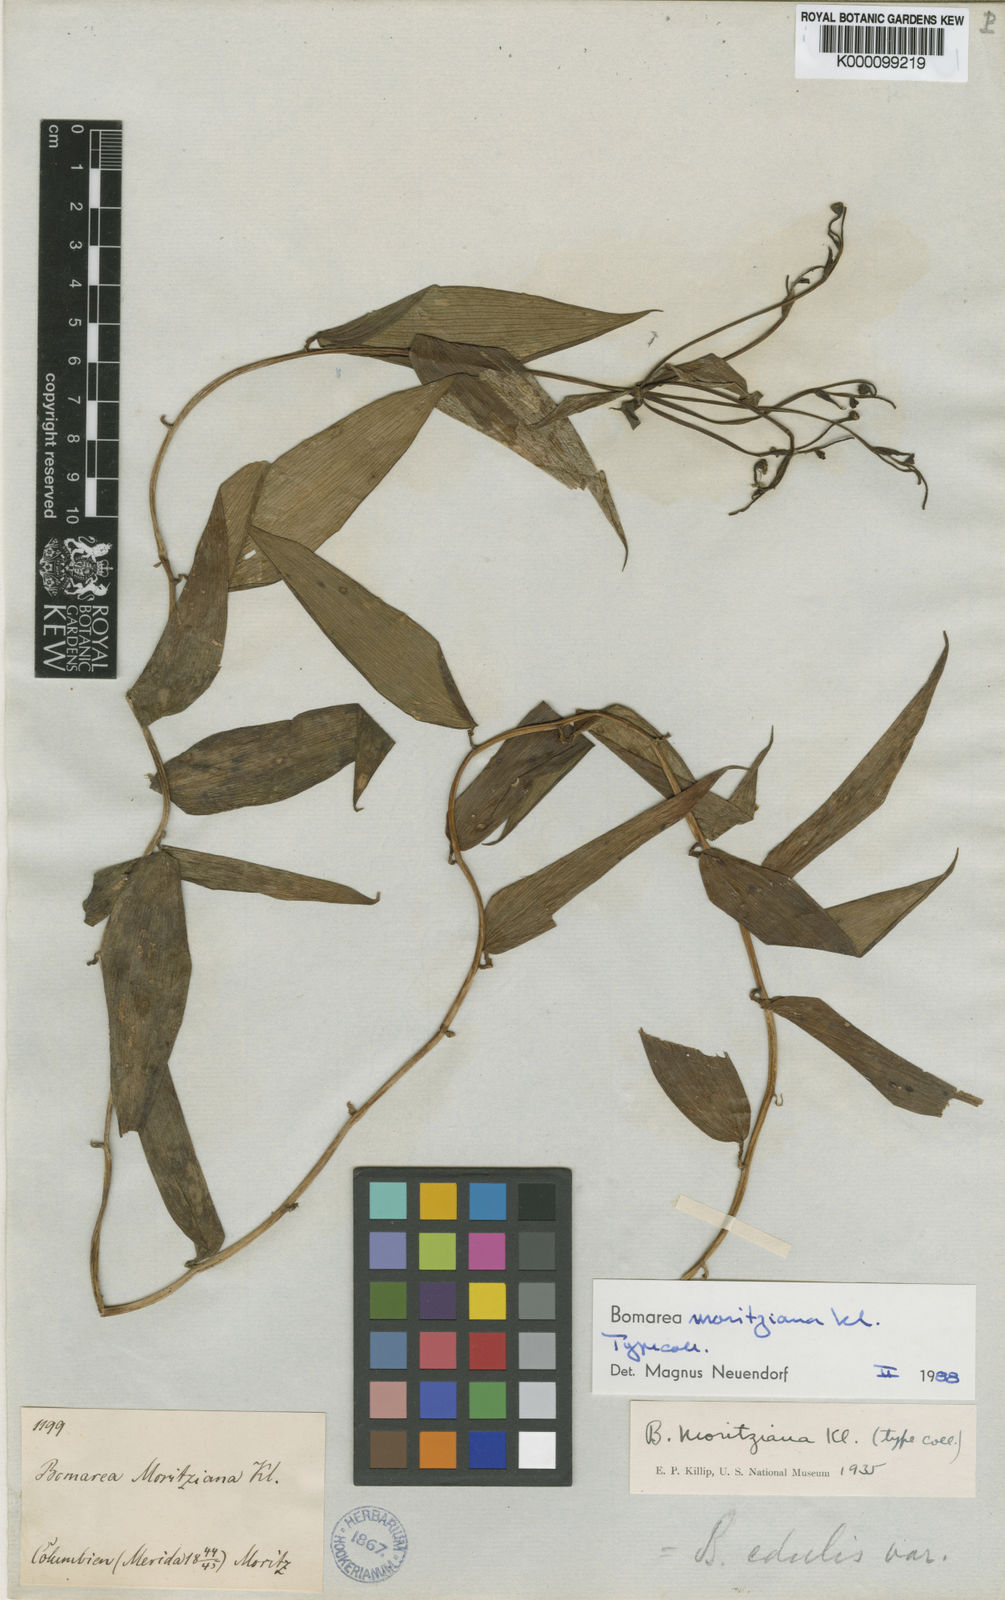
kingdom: Plantae
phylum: Tracheophyta
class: Liliopsida
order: Liliales
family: Alstroemeriaceae
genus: Bomarea
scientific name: Bomarea moritziana
